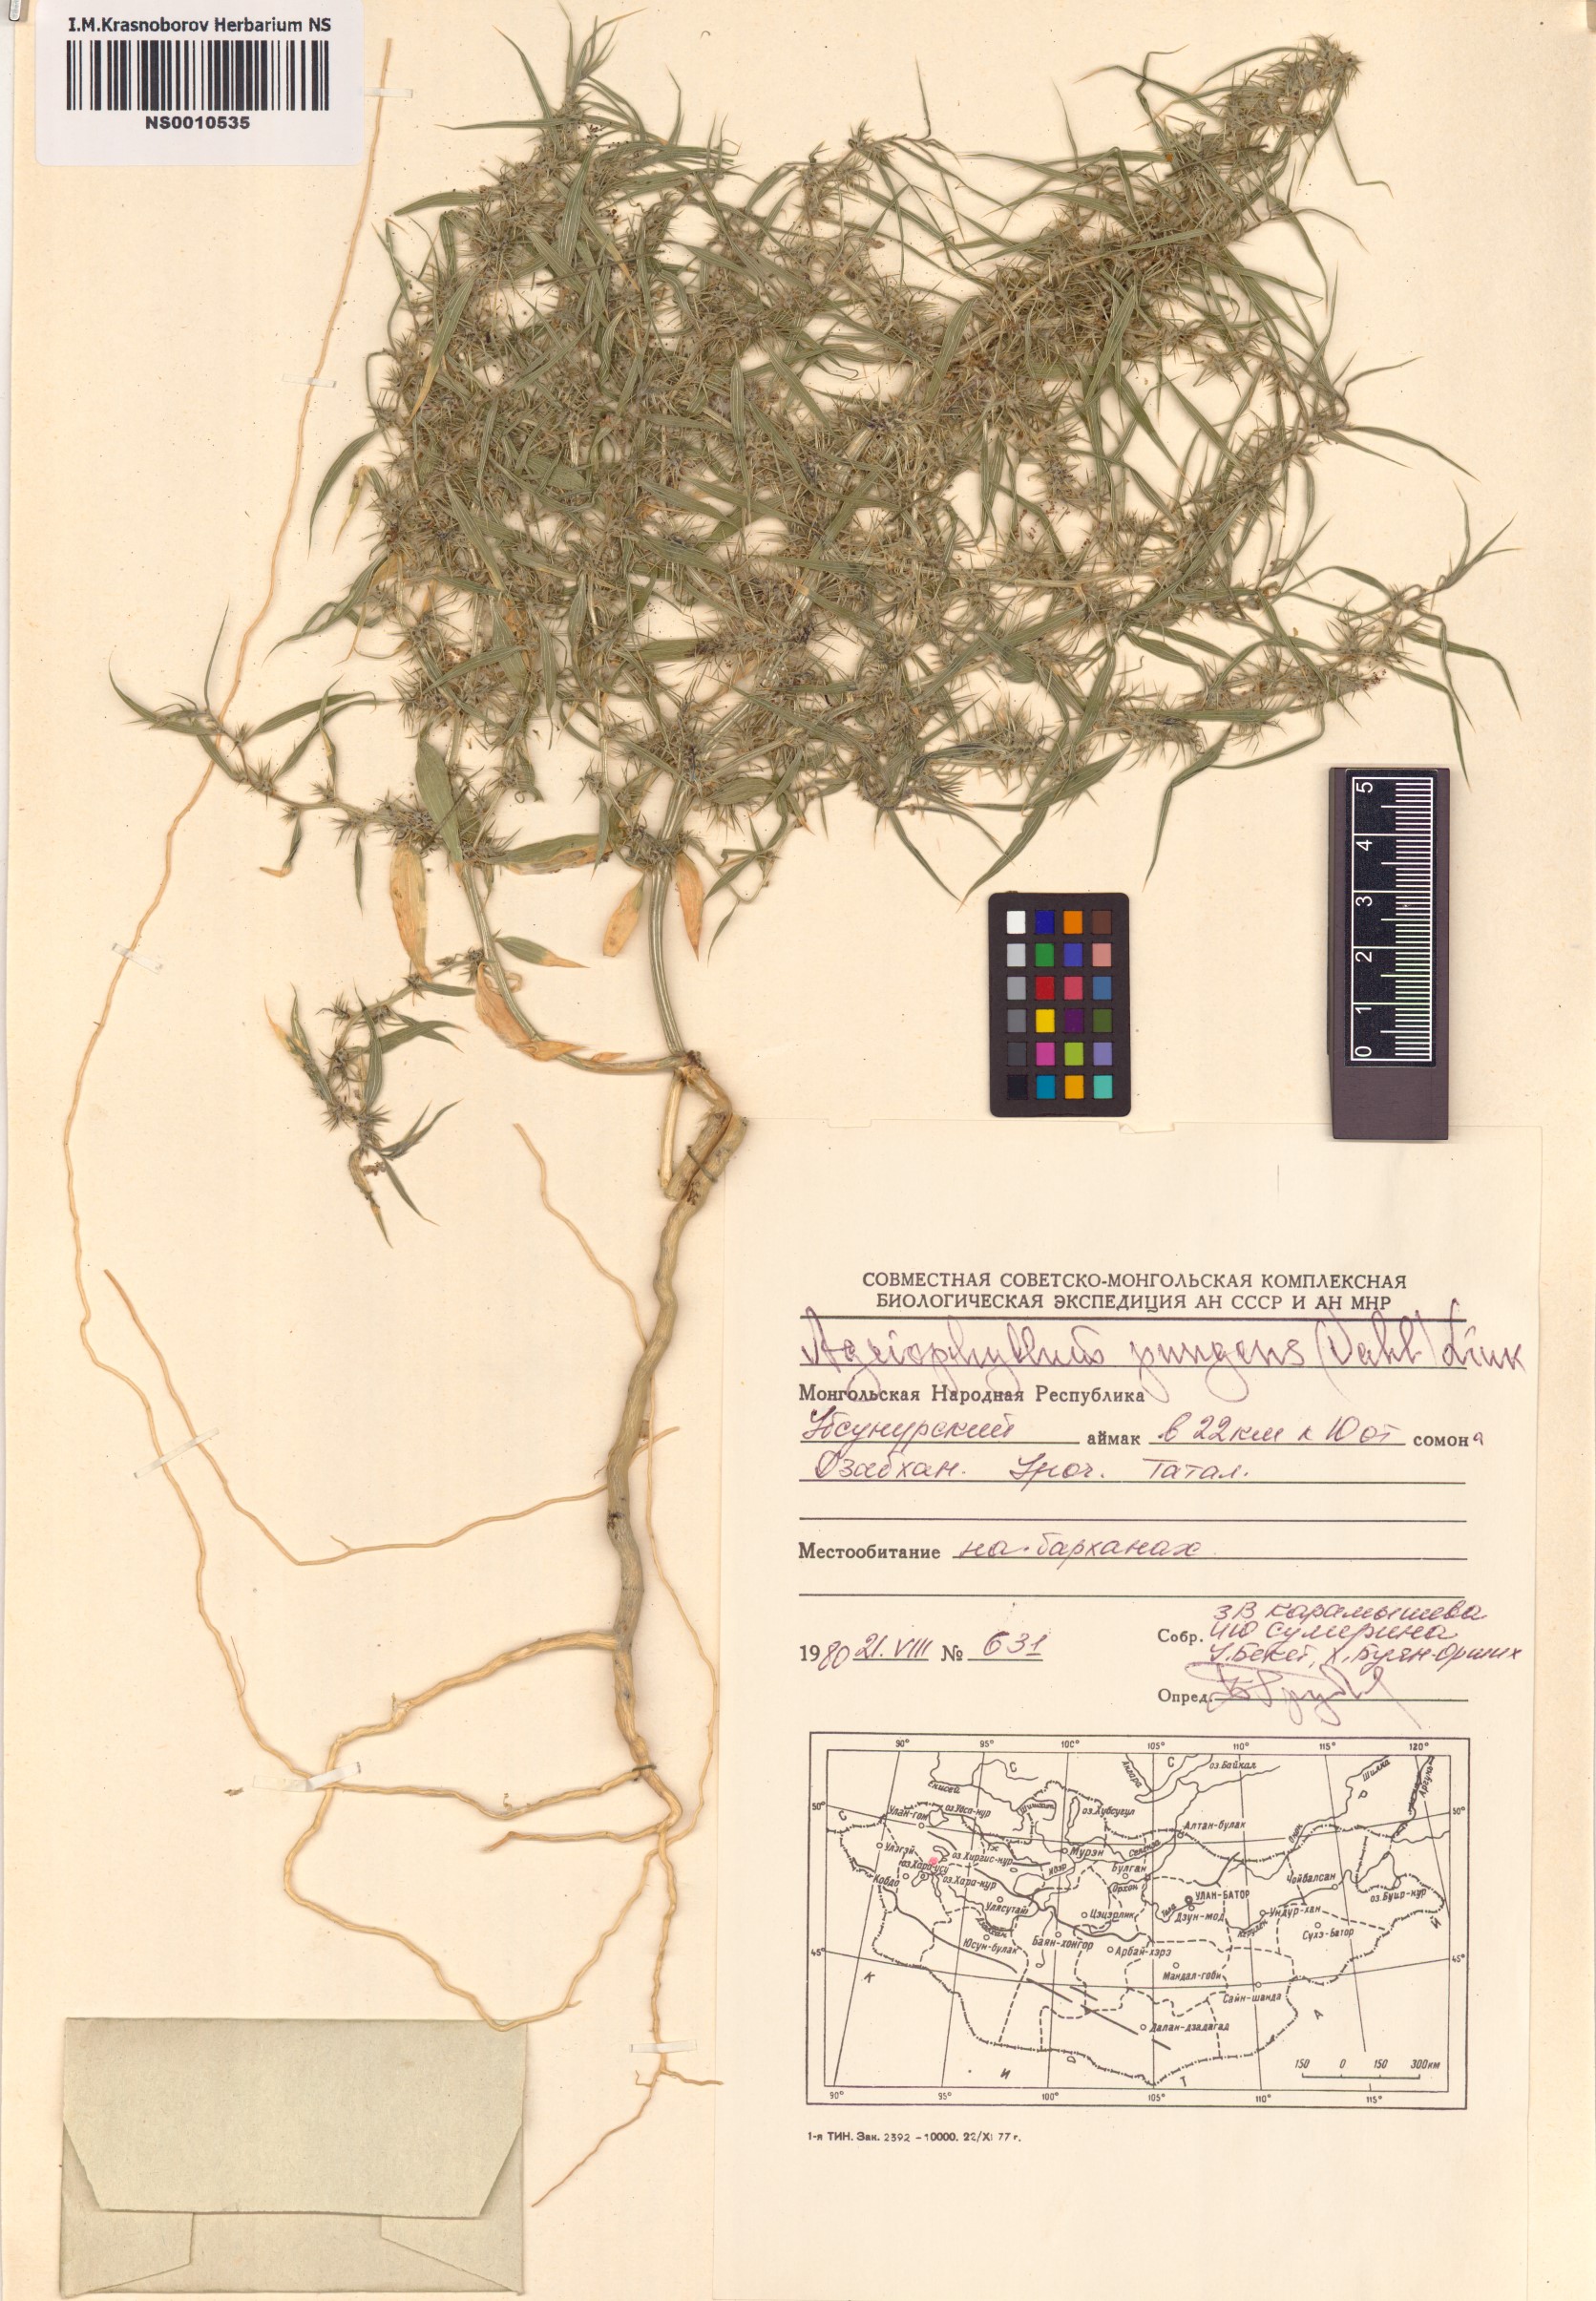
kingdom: Plantae
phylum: Tracheophyta
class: Magnoliopsida
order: Caryophyllales
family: Amaranthaceae
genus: Agriophyllum
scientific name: Agriophyllum pungens
